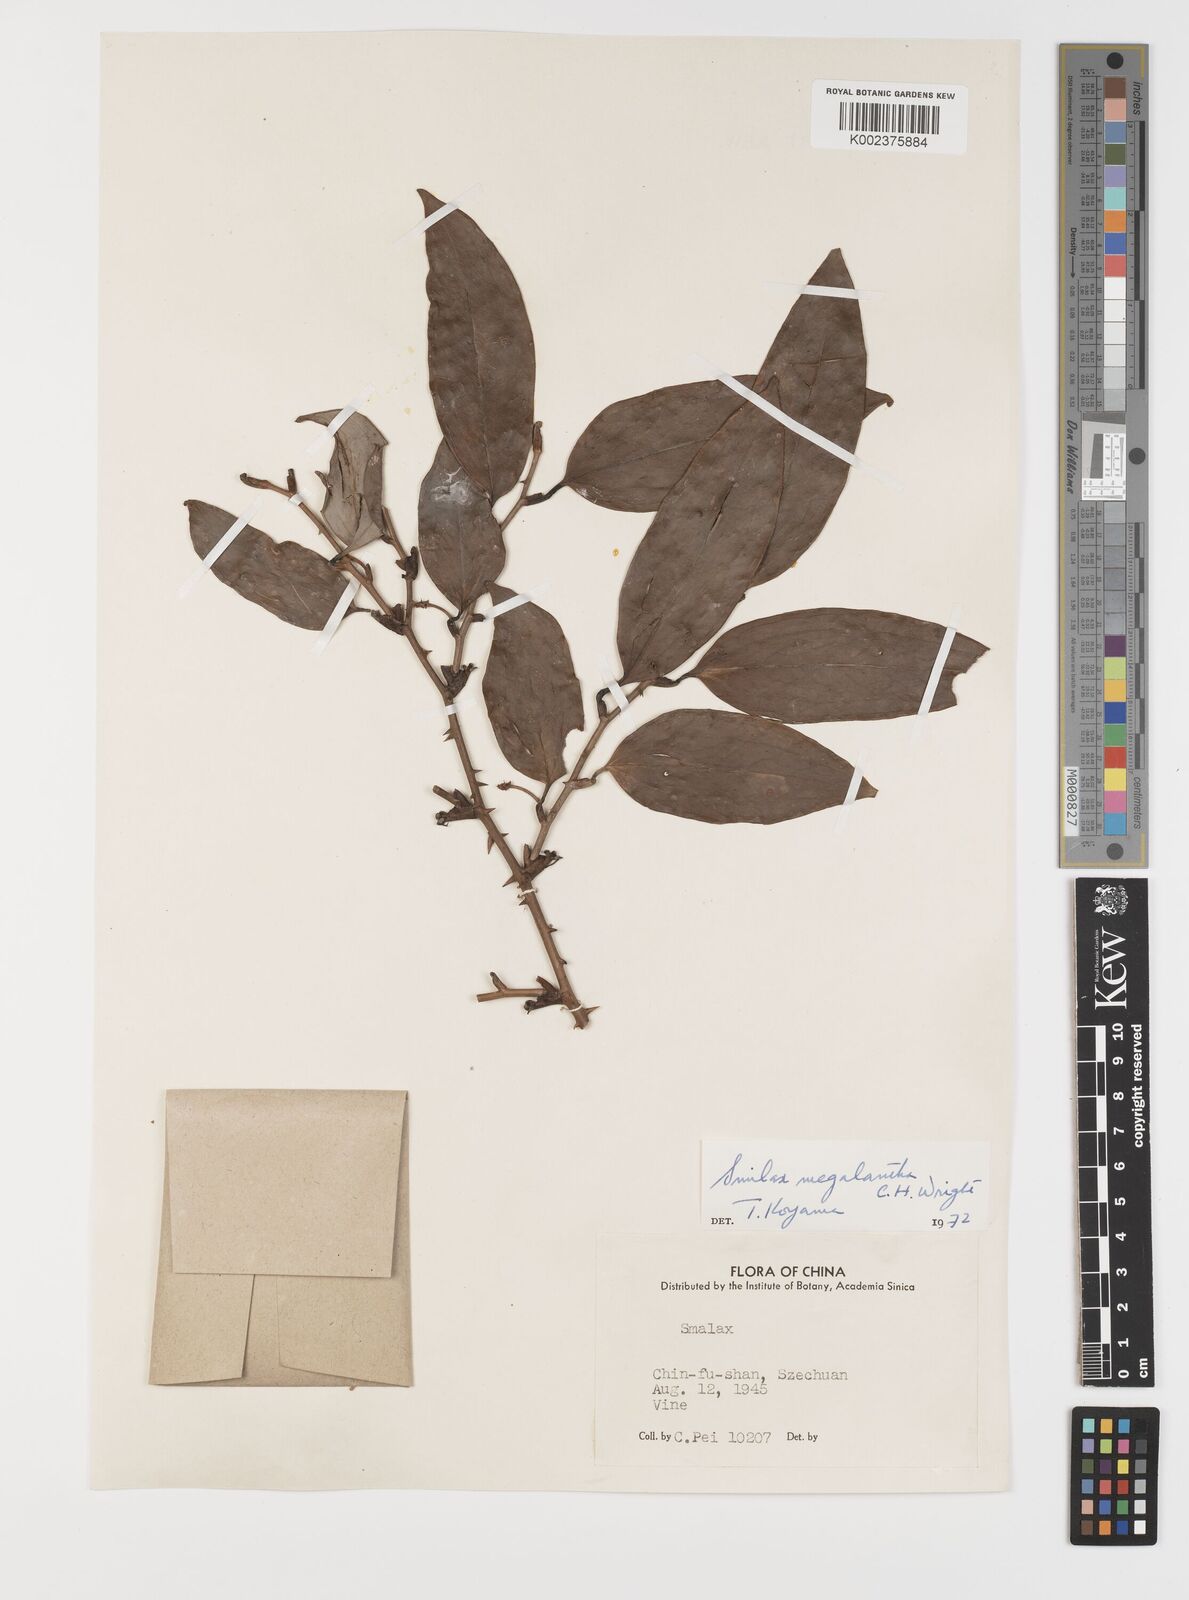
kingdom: Plantae
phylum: Tracheophyta
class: Liliopsida
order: Liliales
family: Smilacaceae
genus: Smilax
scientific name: Smilax megalantha
